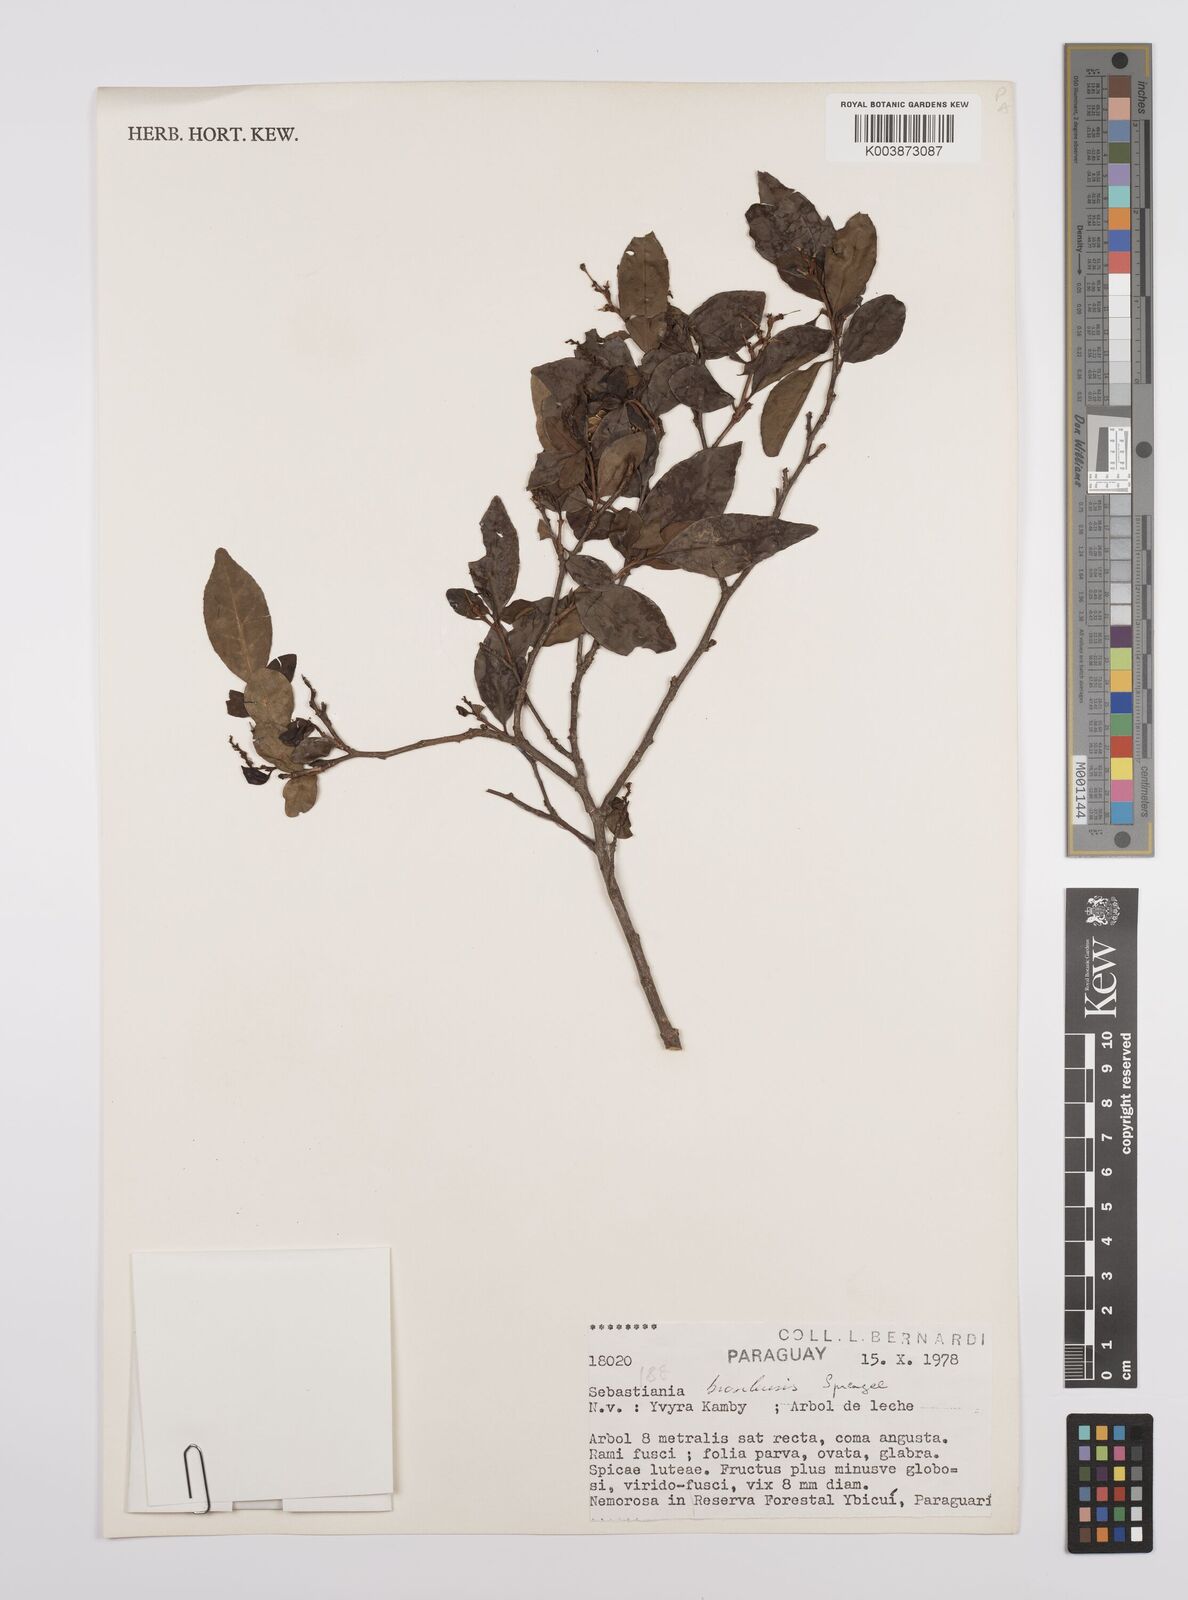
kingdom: Plantae
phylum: Tracheophyta
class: Magnoliopsida
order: Malpighiales
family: Euphorbiaceae
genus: Sebastiania
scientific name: Sebastiania brasiliensis
